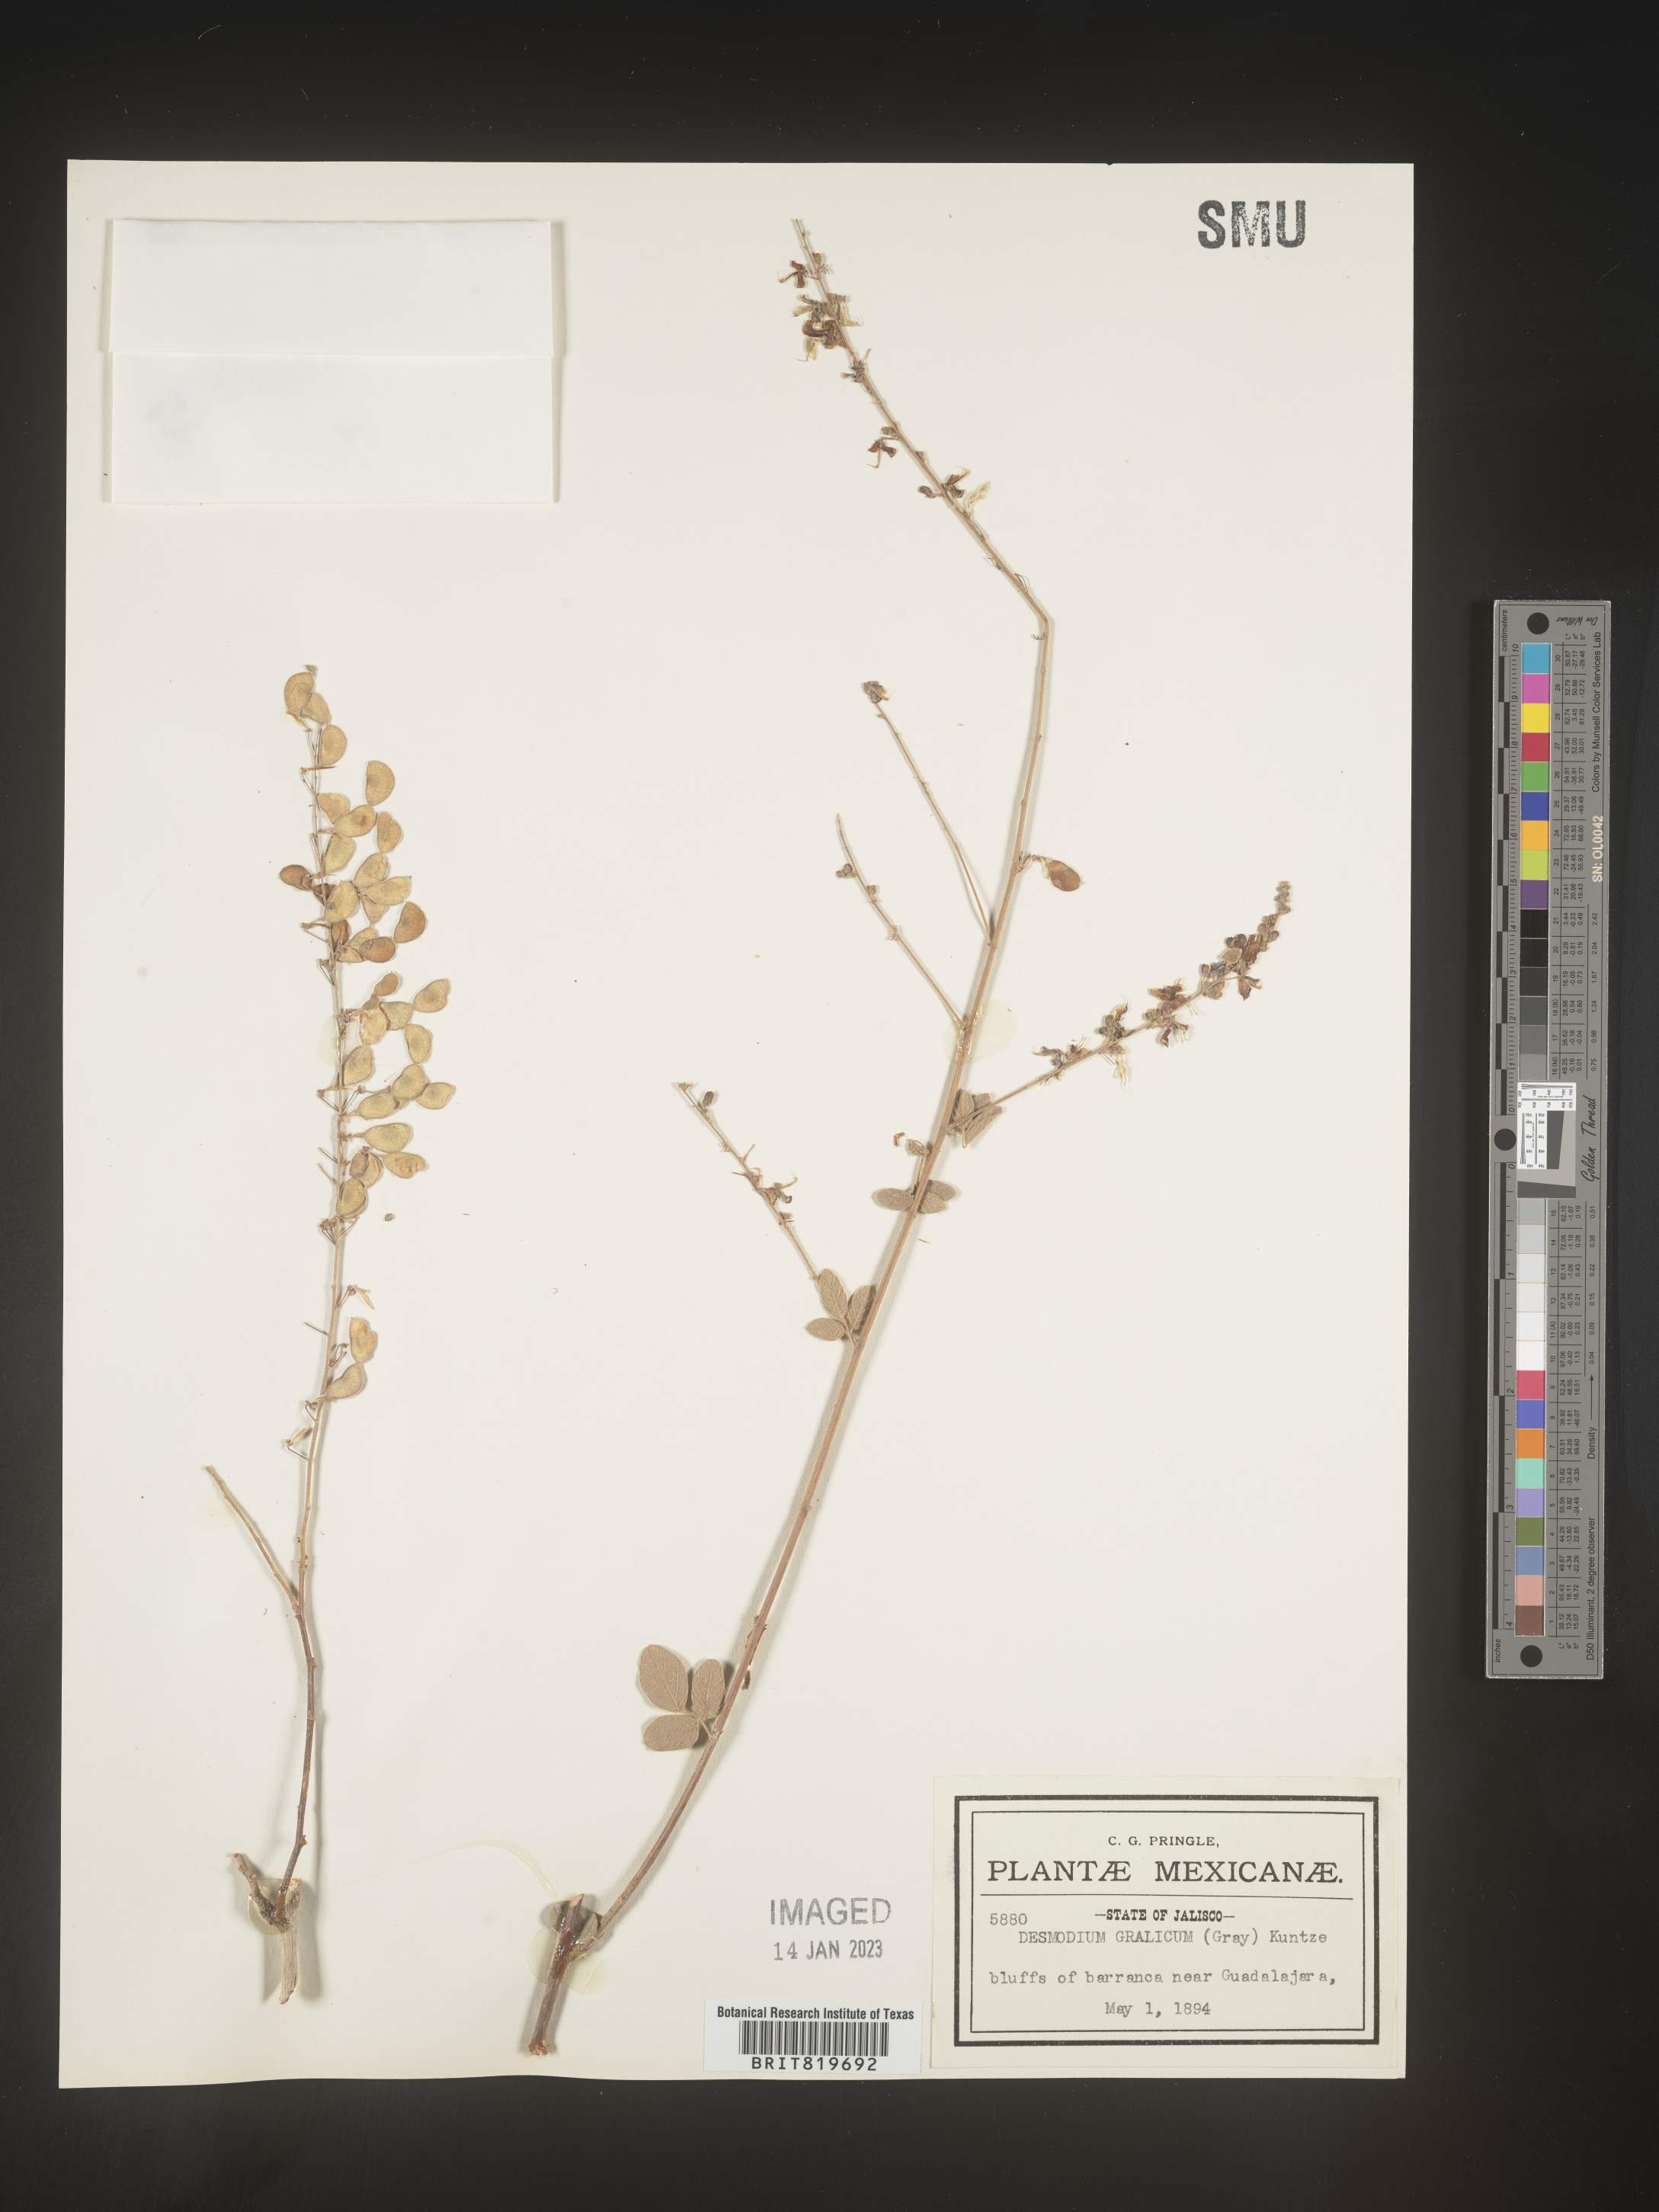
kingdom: Plantae
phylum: Tracheophyta
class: Magnoliopsida
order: Fabales
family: Fabaceae
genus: Desmodium
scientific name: Desmodium
